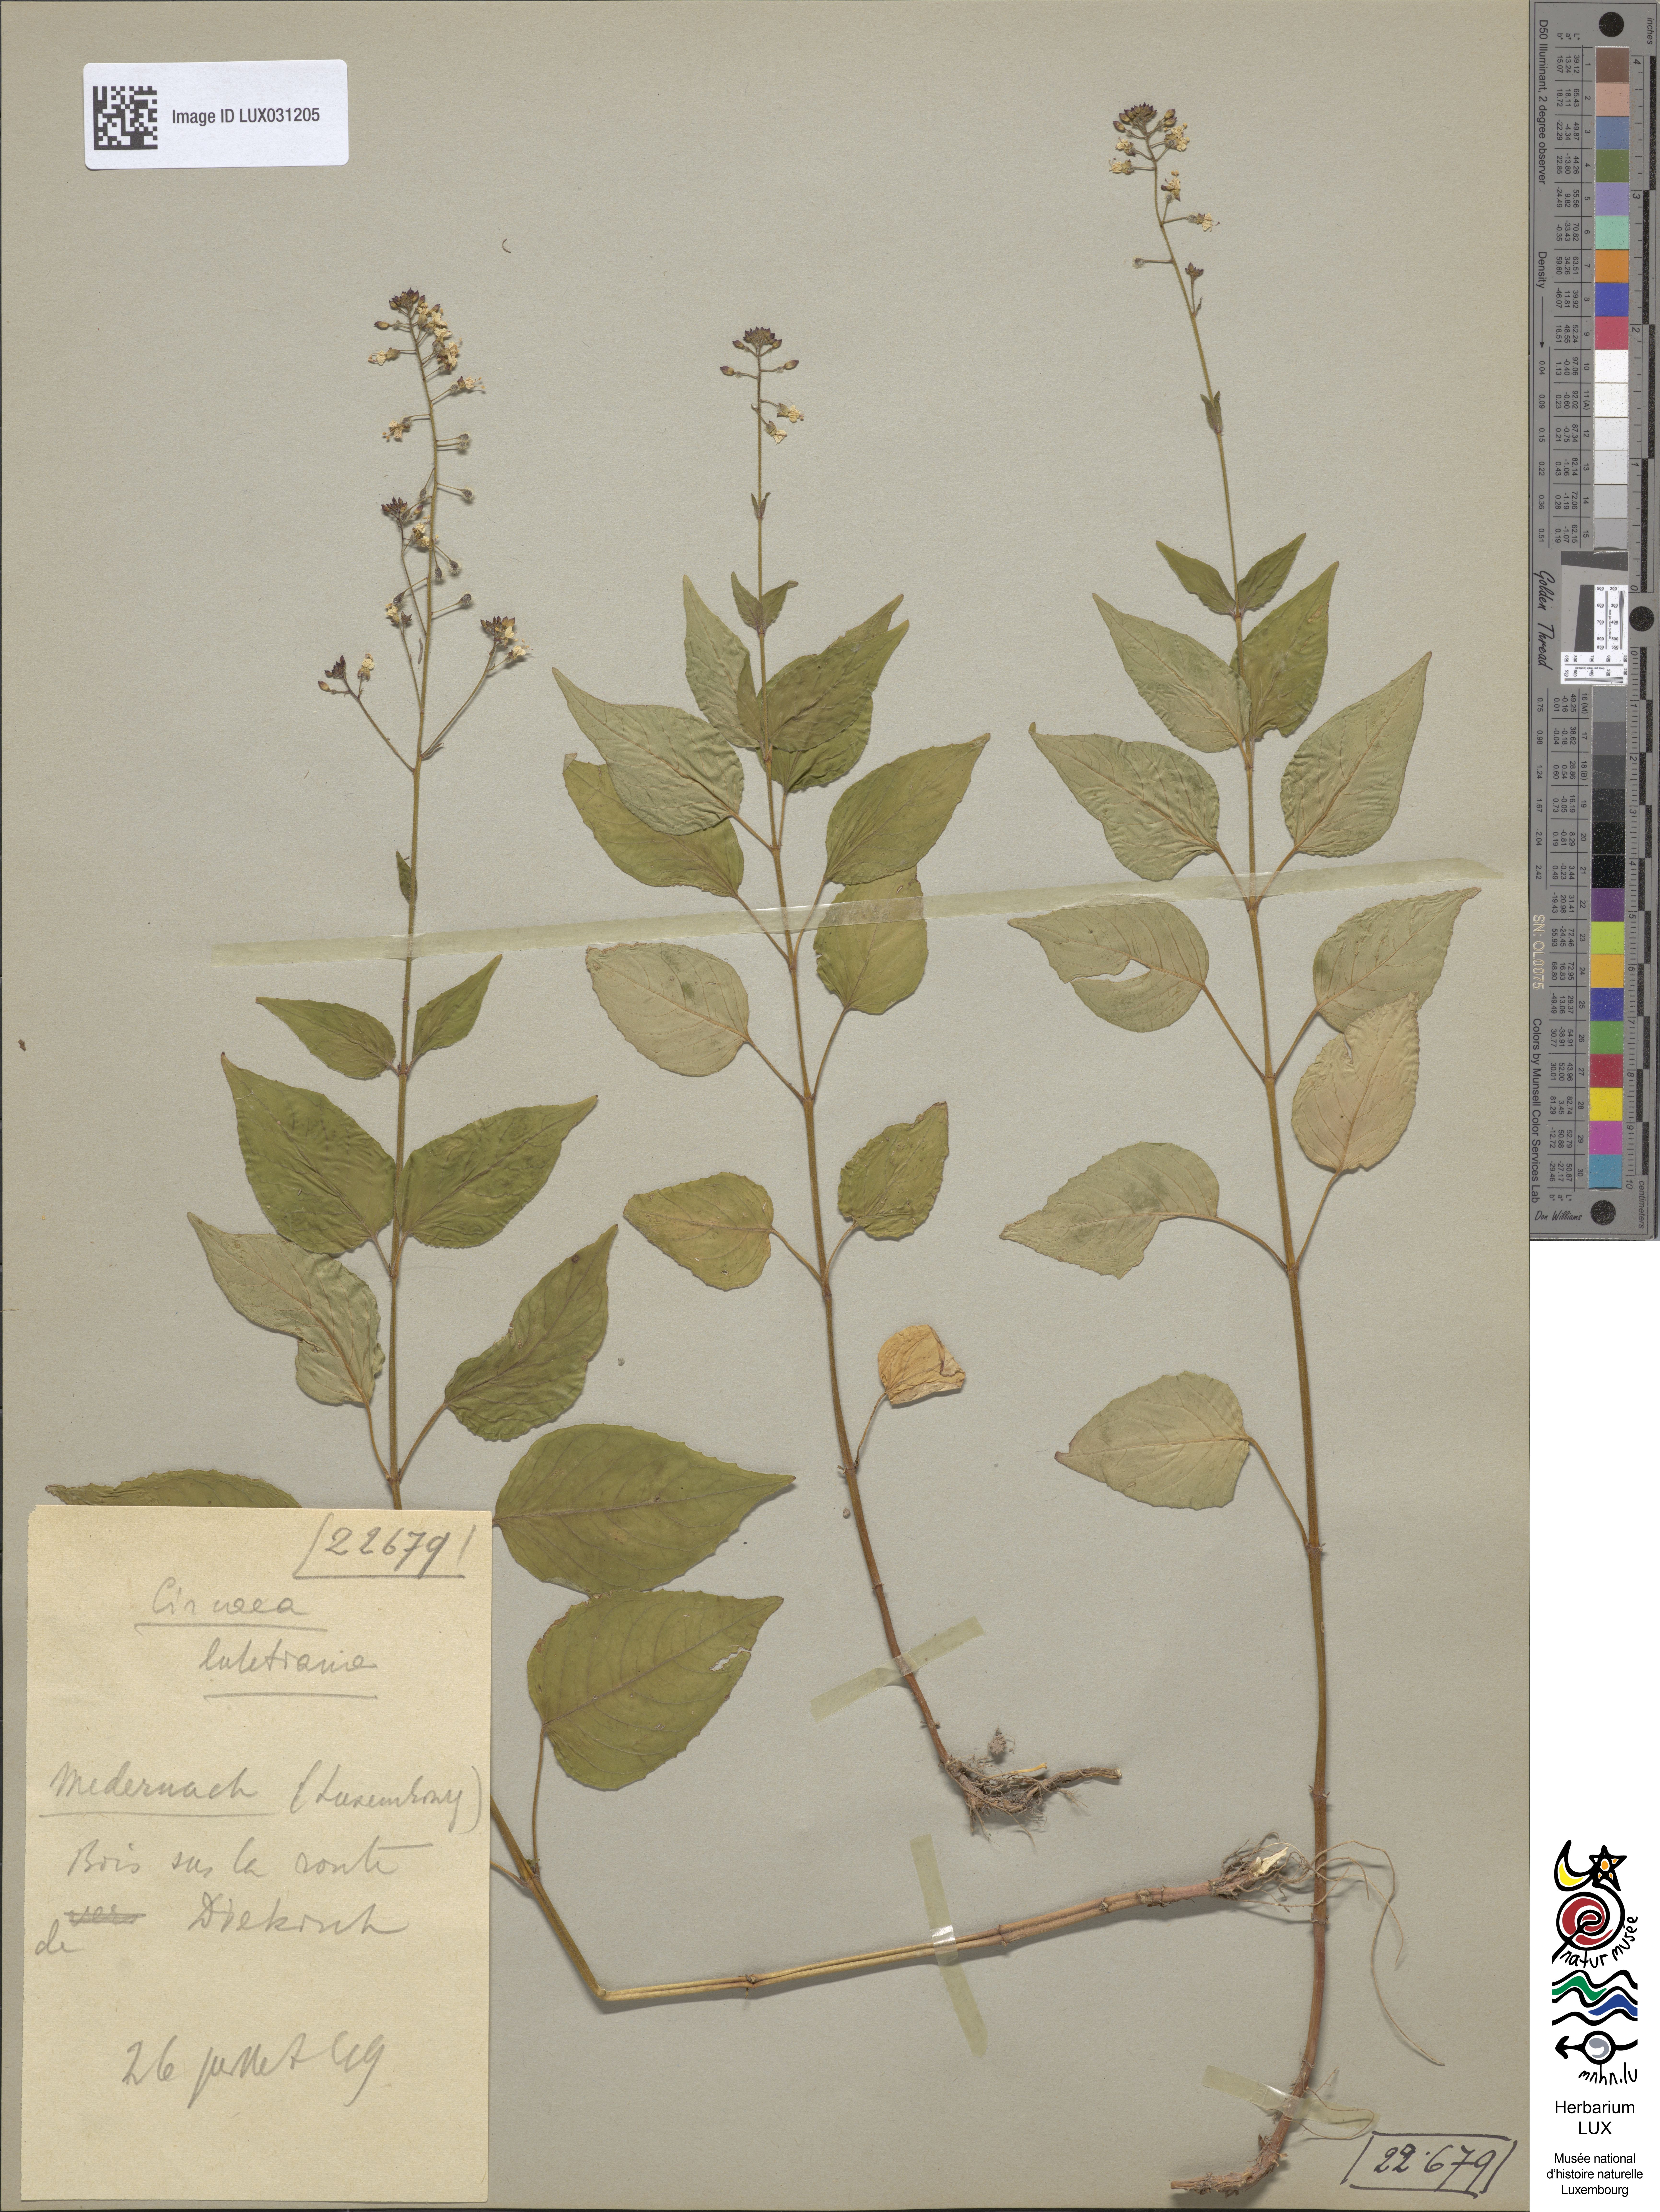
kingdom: Plantae
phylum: Tracheophyta
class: Magnoliopsida
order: Myrtales
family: Onagraceae
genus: Circaea
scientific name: Circaea lutetiana
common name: Enchanter's-nightshade
